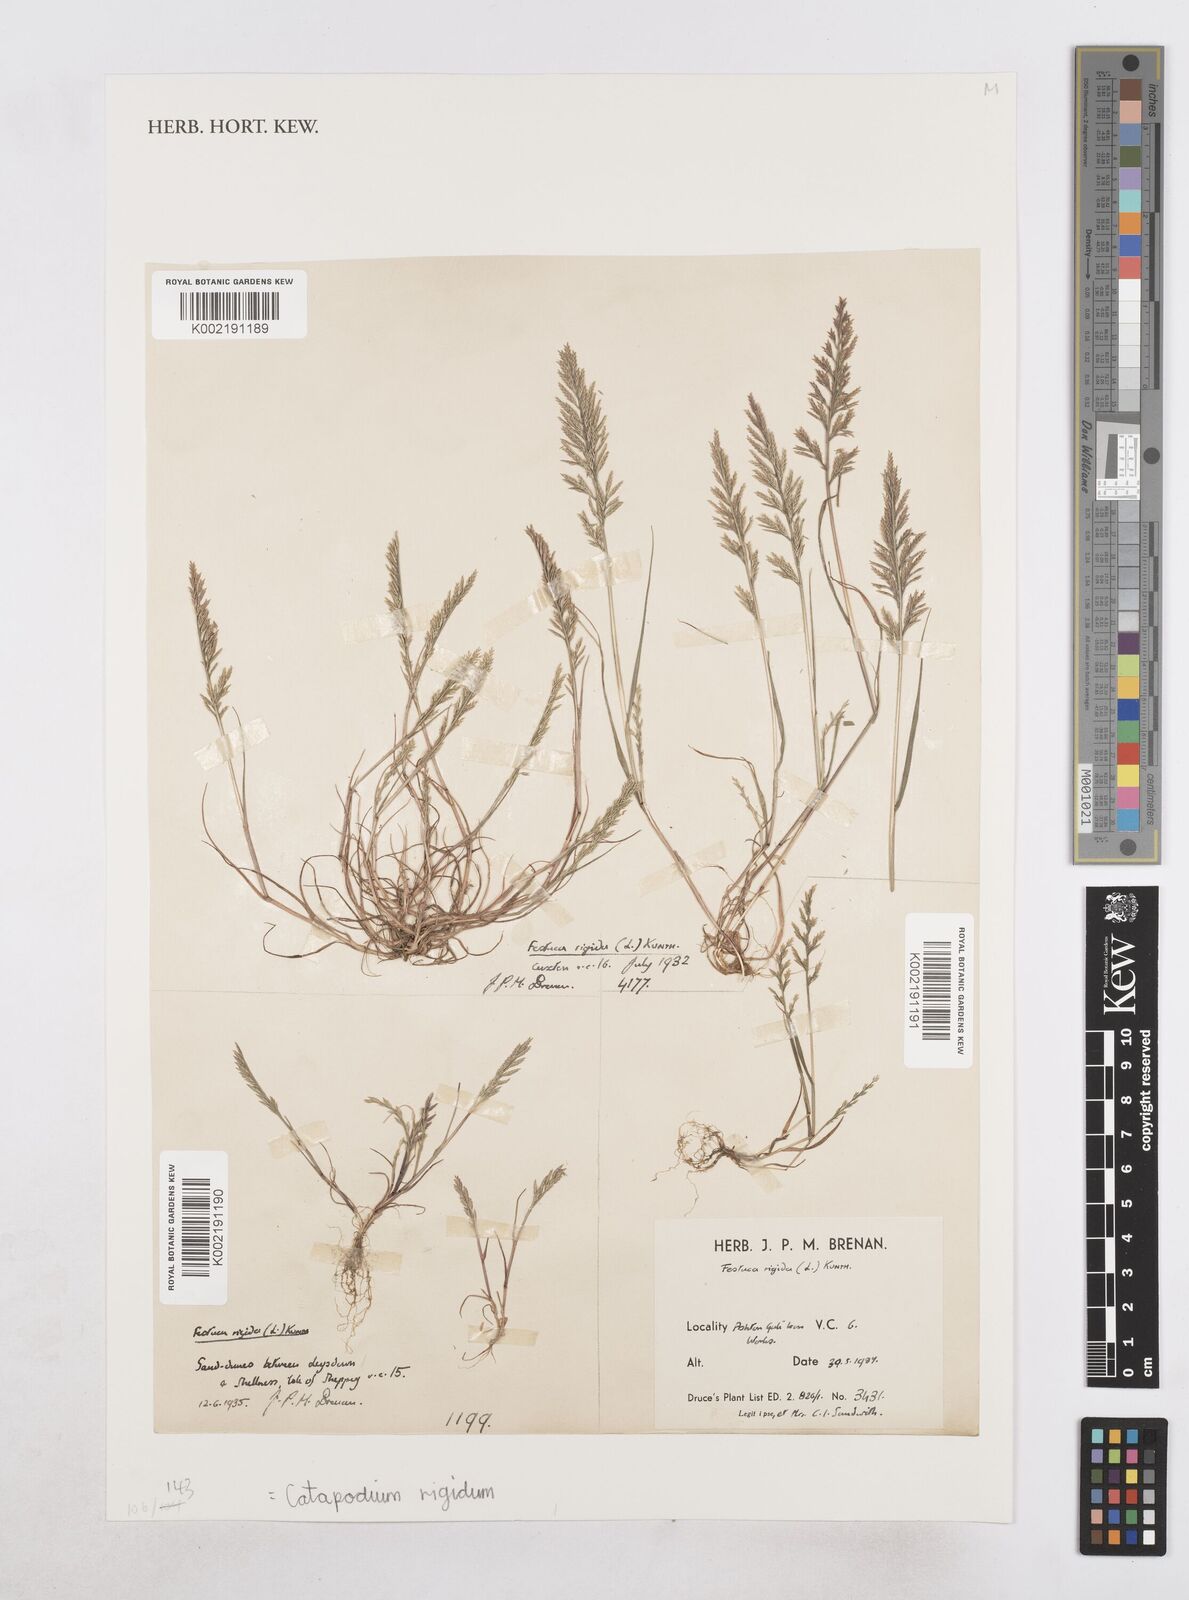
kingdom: Plantae
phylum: Tracheophyta
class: Liliopsida
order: Poales
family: Poaceae
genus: Catapodium
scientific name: Catapodium rigidum
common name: Fern-grass
